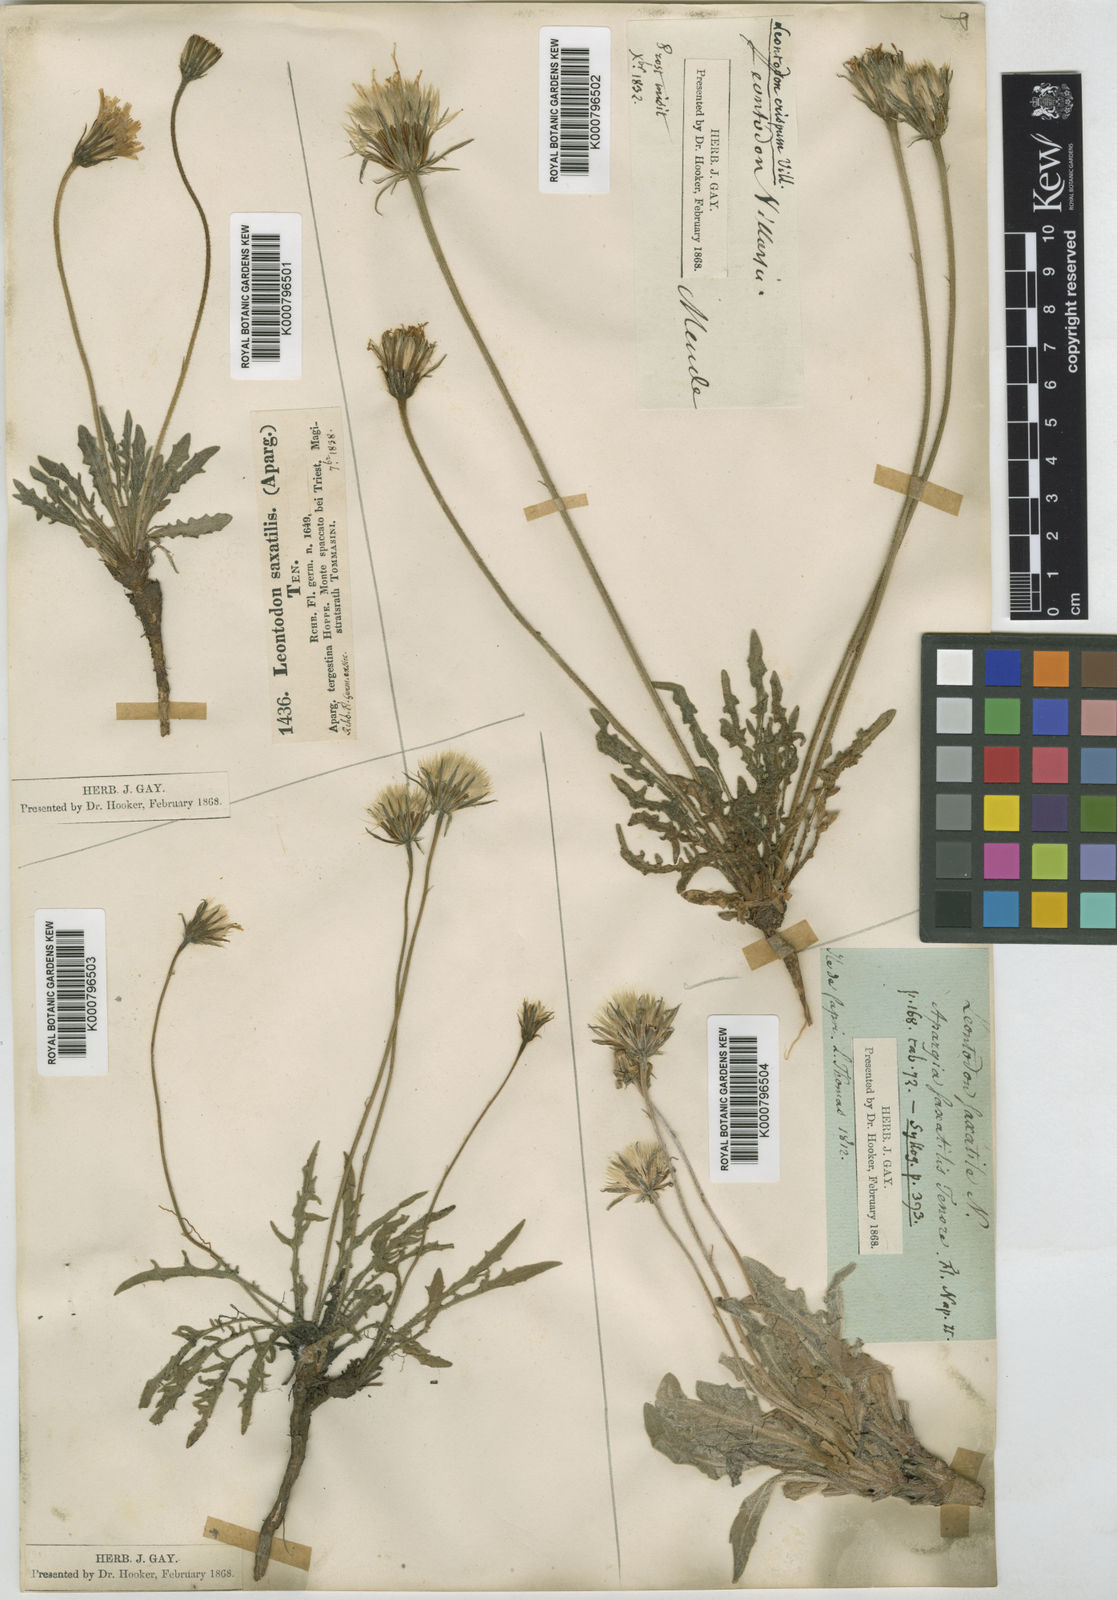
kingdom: Plantae
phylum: Tracheophyta
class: Magnoliopsida
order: Asterales
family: Asteraceae
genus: Leontodon
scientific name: Leontodon
